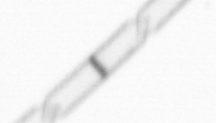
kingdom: Chromista
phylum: Ochrophyta
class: Bacillariophyceae
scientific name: Bacillariophyceae
